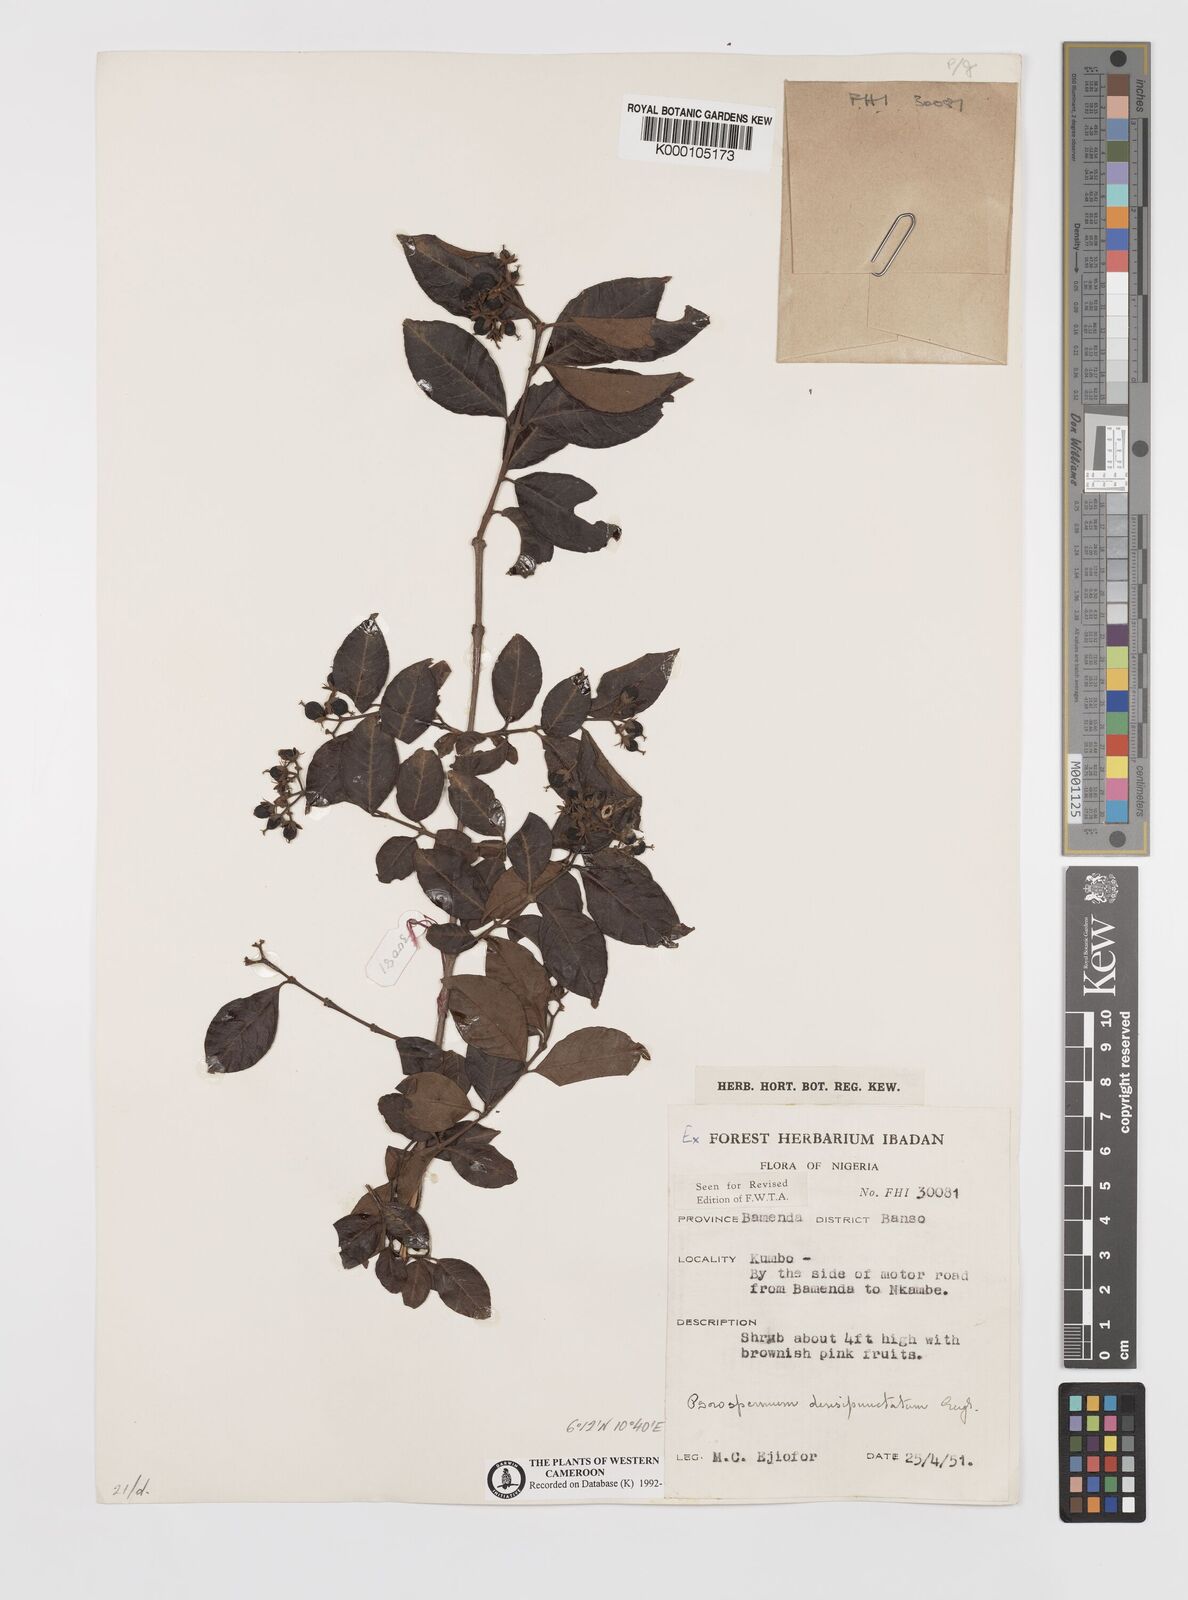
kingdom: Plantae
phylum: Tracheophyta
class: Magnoliopsida
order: Malpighiales
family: Hypericaceae
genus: Psorospermum
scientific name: Psorospermum densipunctatum
